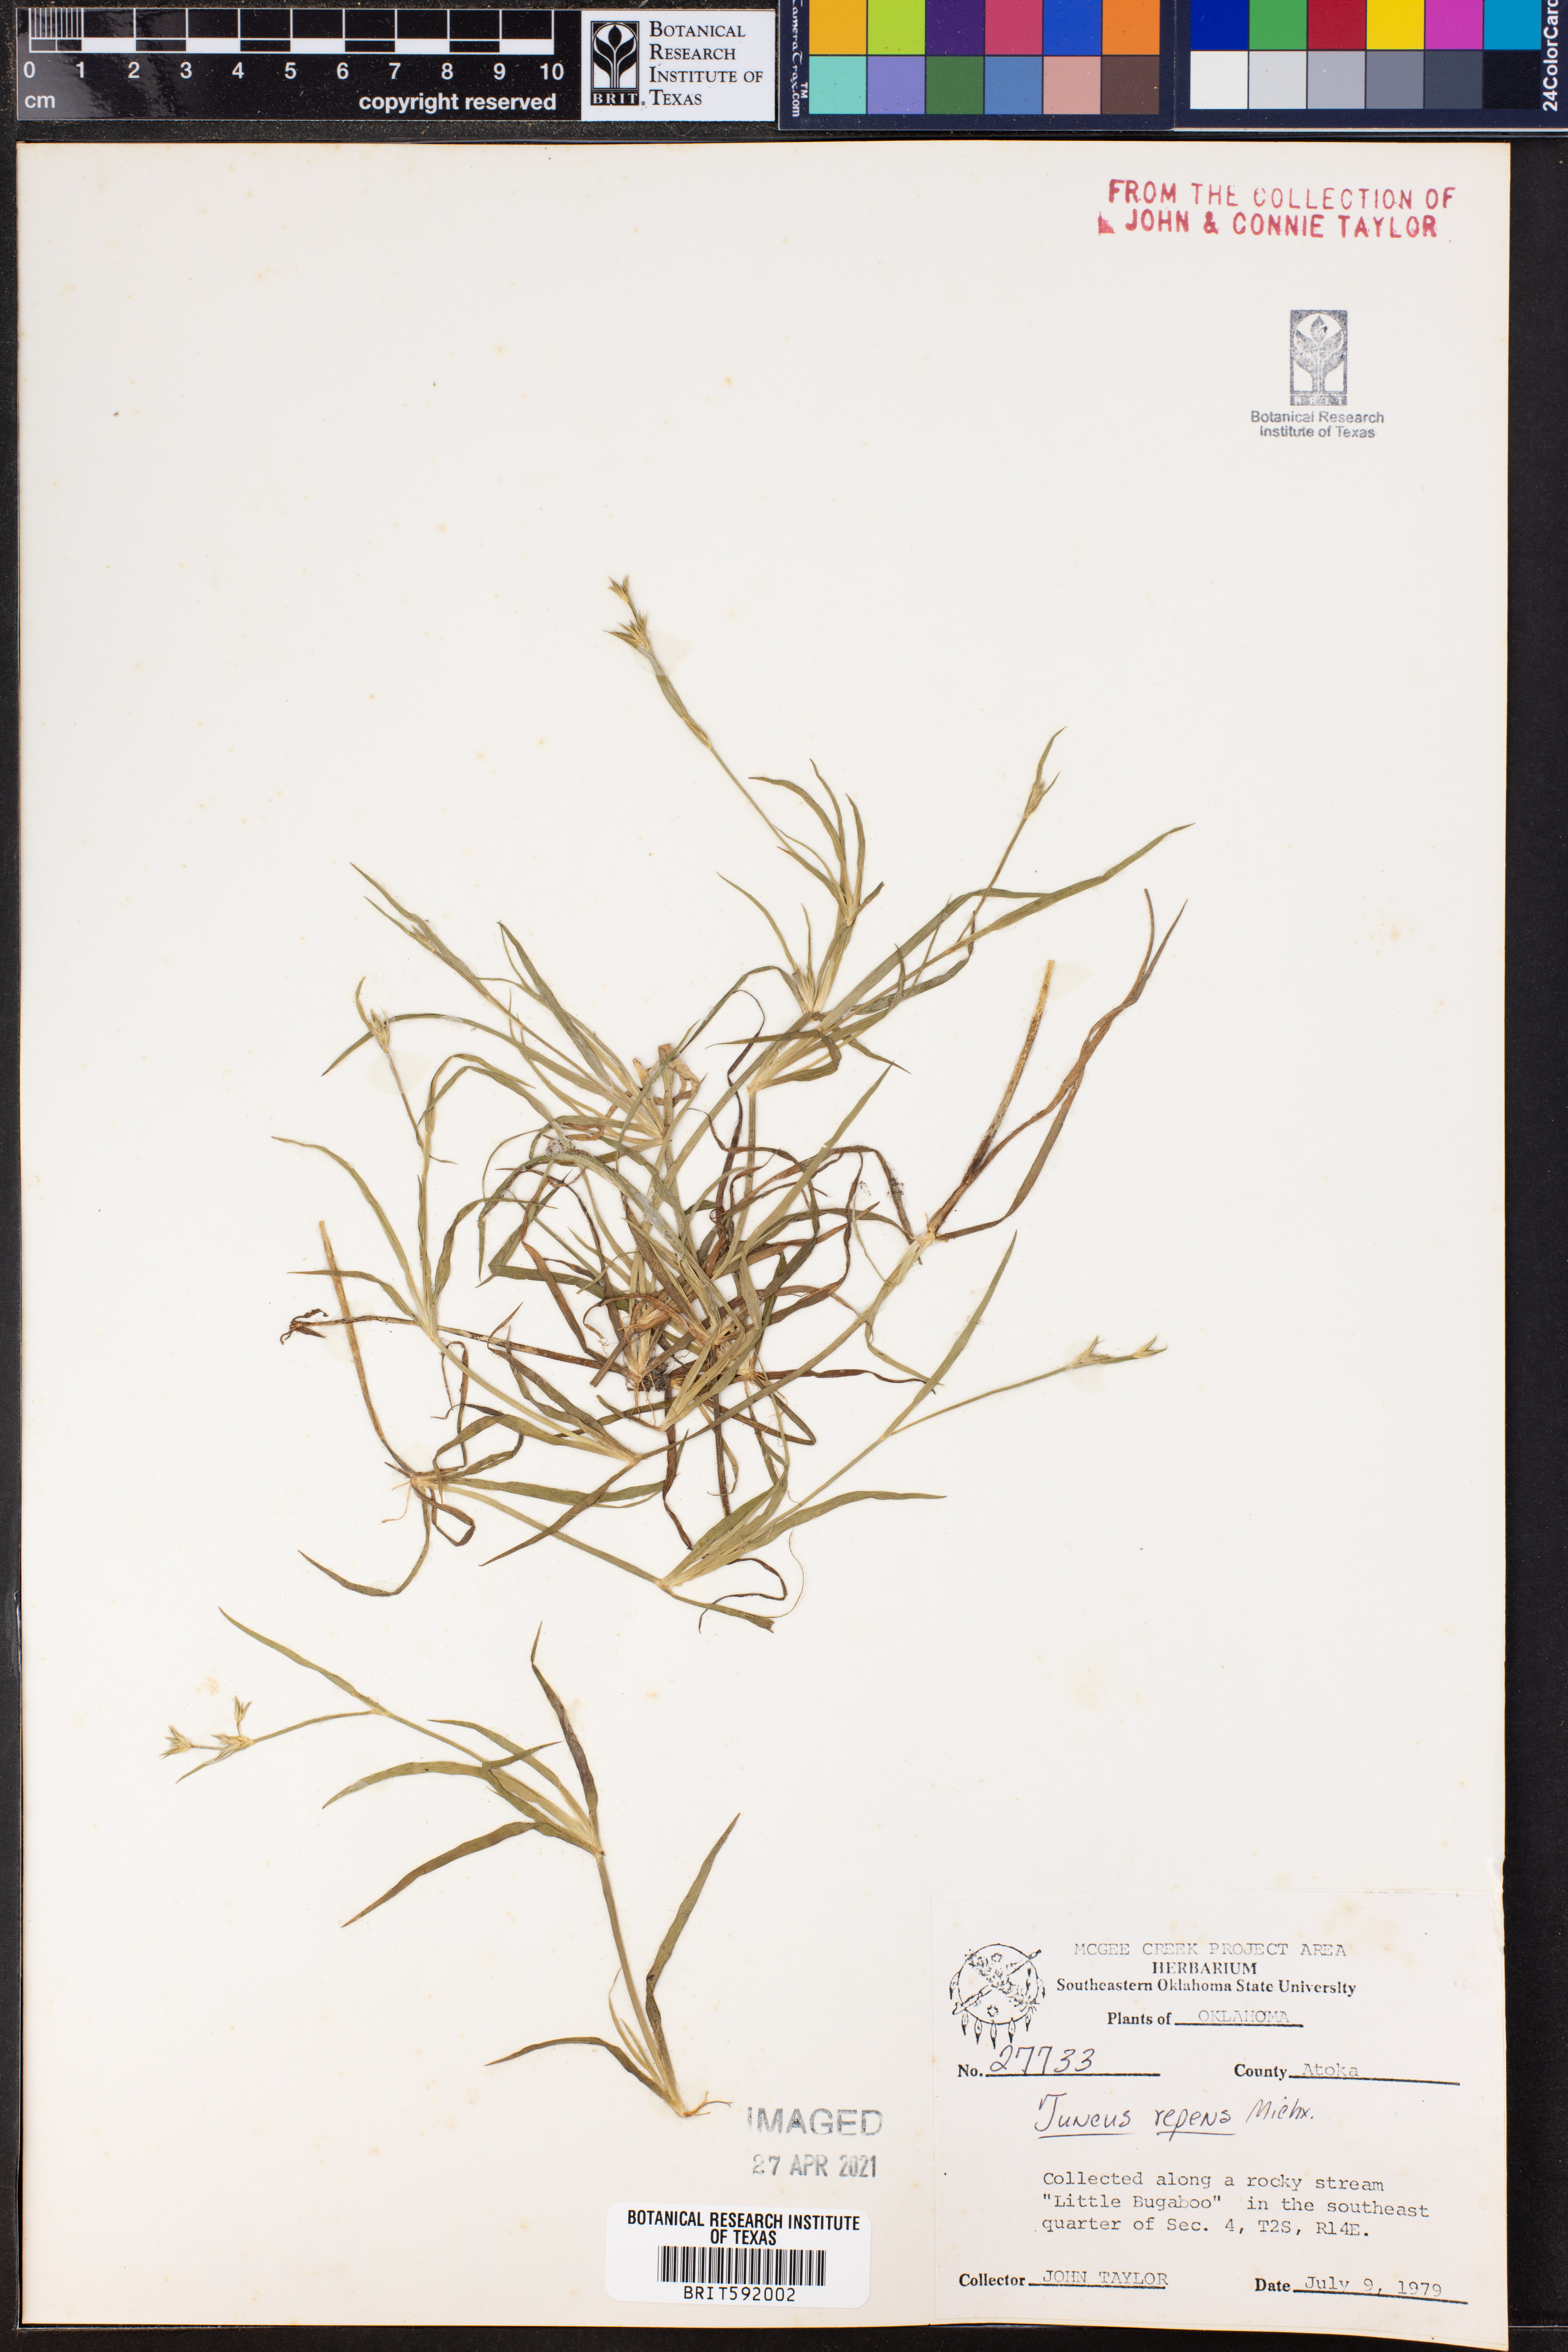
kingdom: Plantae
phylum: Tracheophyta
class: Liliopsida
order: Poales
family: Juncaceae
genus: Juncus
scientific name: Juncus repens
